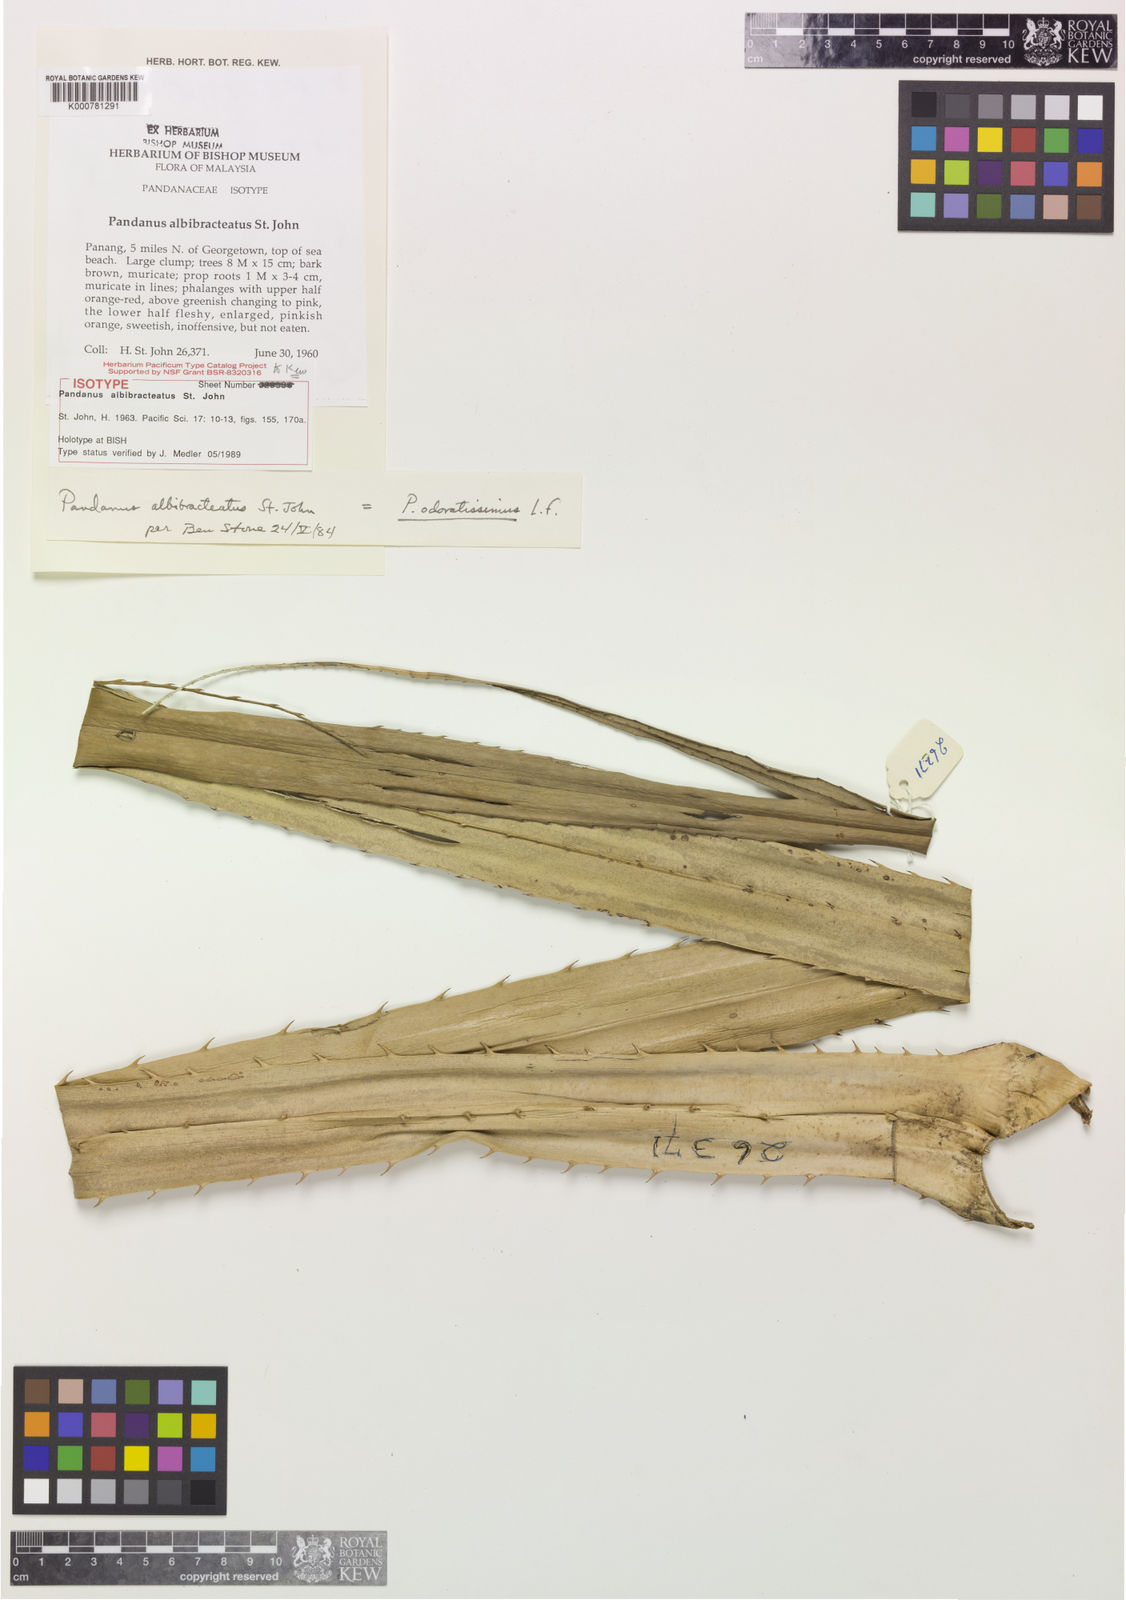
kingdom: Plantae
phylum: Tracheophyta
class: Liliopsida
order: Pandanales
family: Pandanaceae
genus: Pandanus
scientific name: Pandanus odorifer
